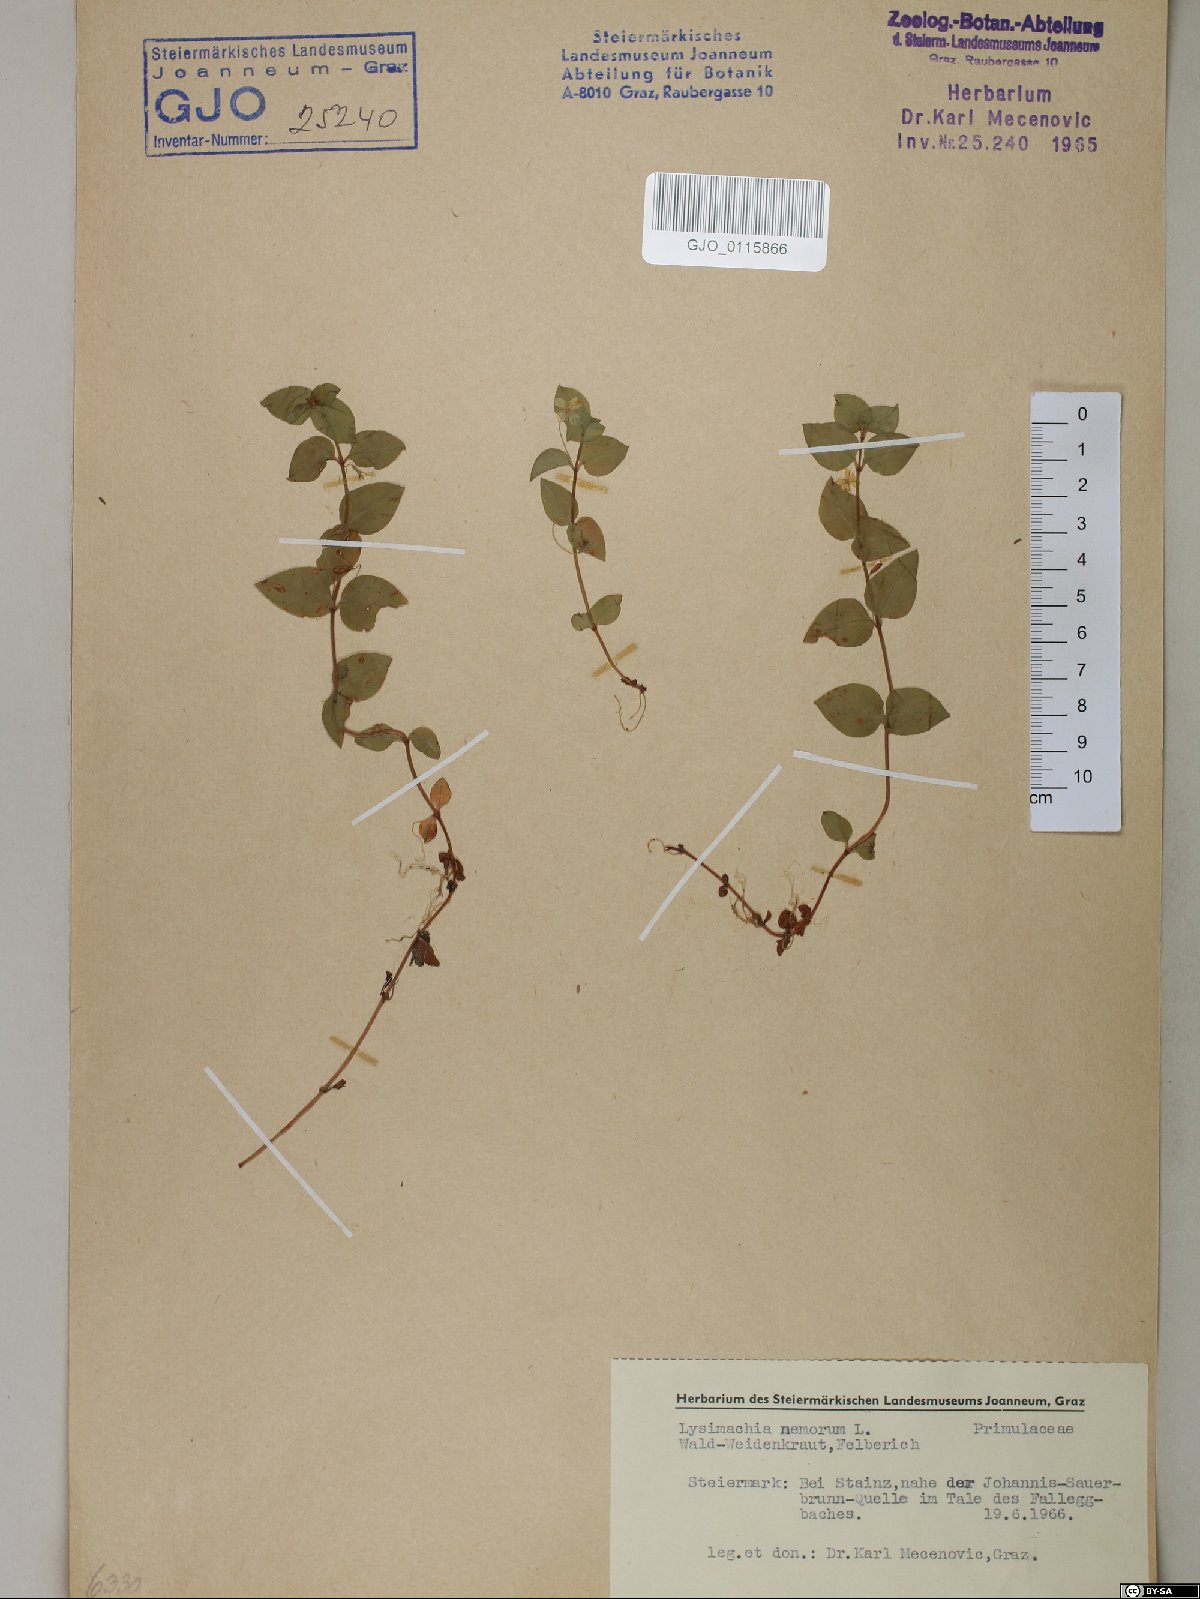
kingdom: Plantae
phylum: Tracheophyta
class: Magnoliopsida
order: Ericales
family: Primulaceae
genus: Lysimachia
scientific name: Lysimachia nemorum
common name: Yellow pimpernel
